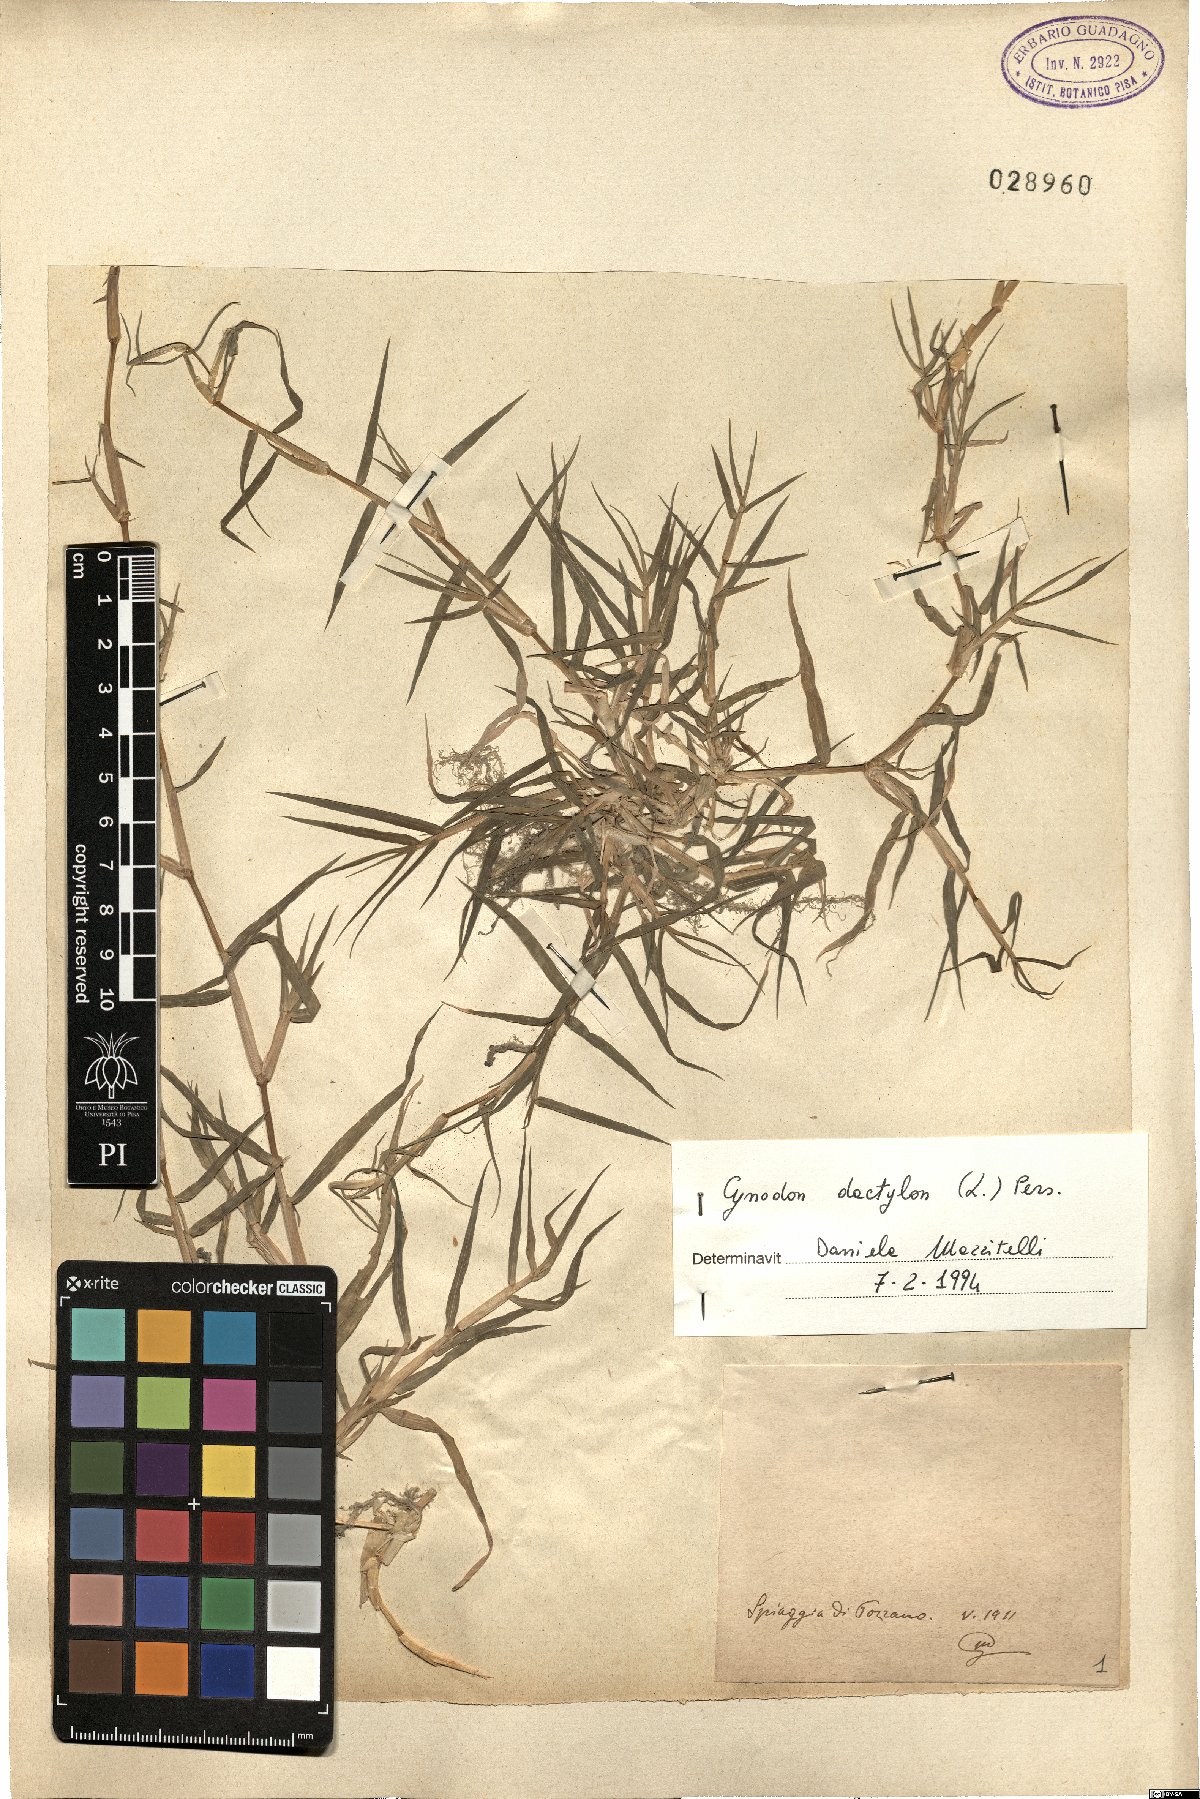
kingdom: Plantae
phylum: Tracheophyta
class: Liliopsida
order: Poales
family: Poaceae
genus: Cynodon
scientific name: Cynodon dactylon
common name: Bermuda grass
